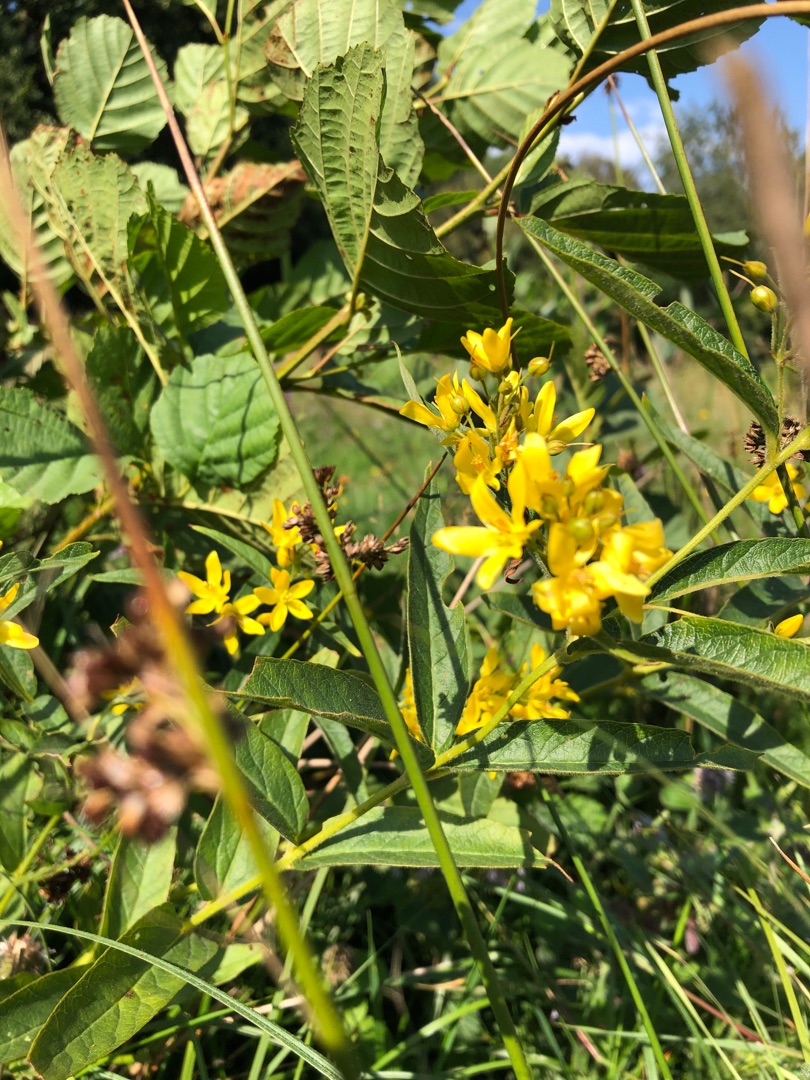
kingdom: Plantae
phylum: Tracheophyta
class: Magnoliopsida
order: Ericales
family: Primulaceae
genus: Lysimachia
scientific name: Lysimachia vulgaris
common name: Almindelig fredløs
